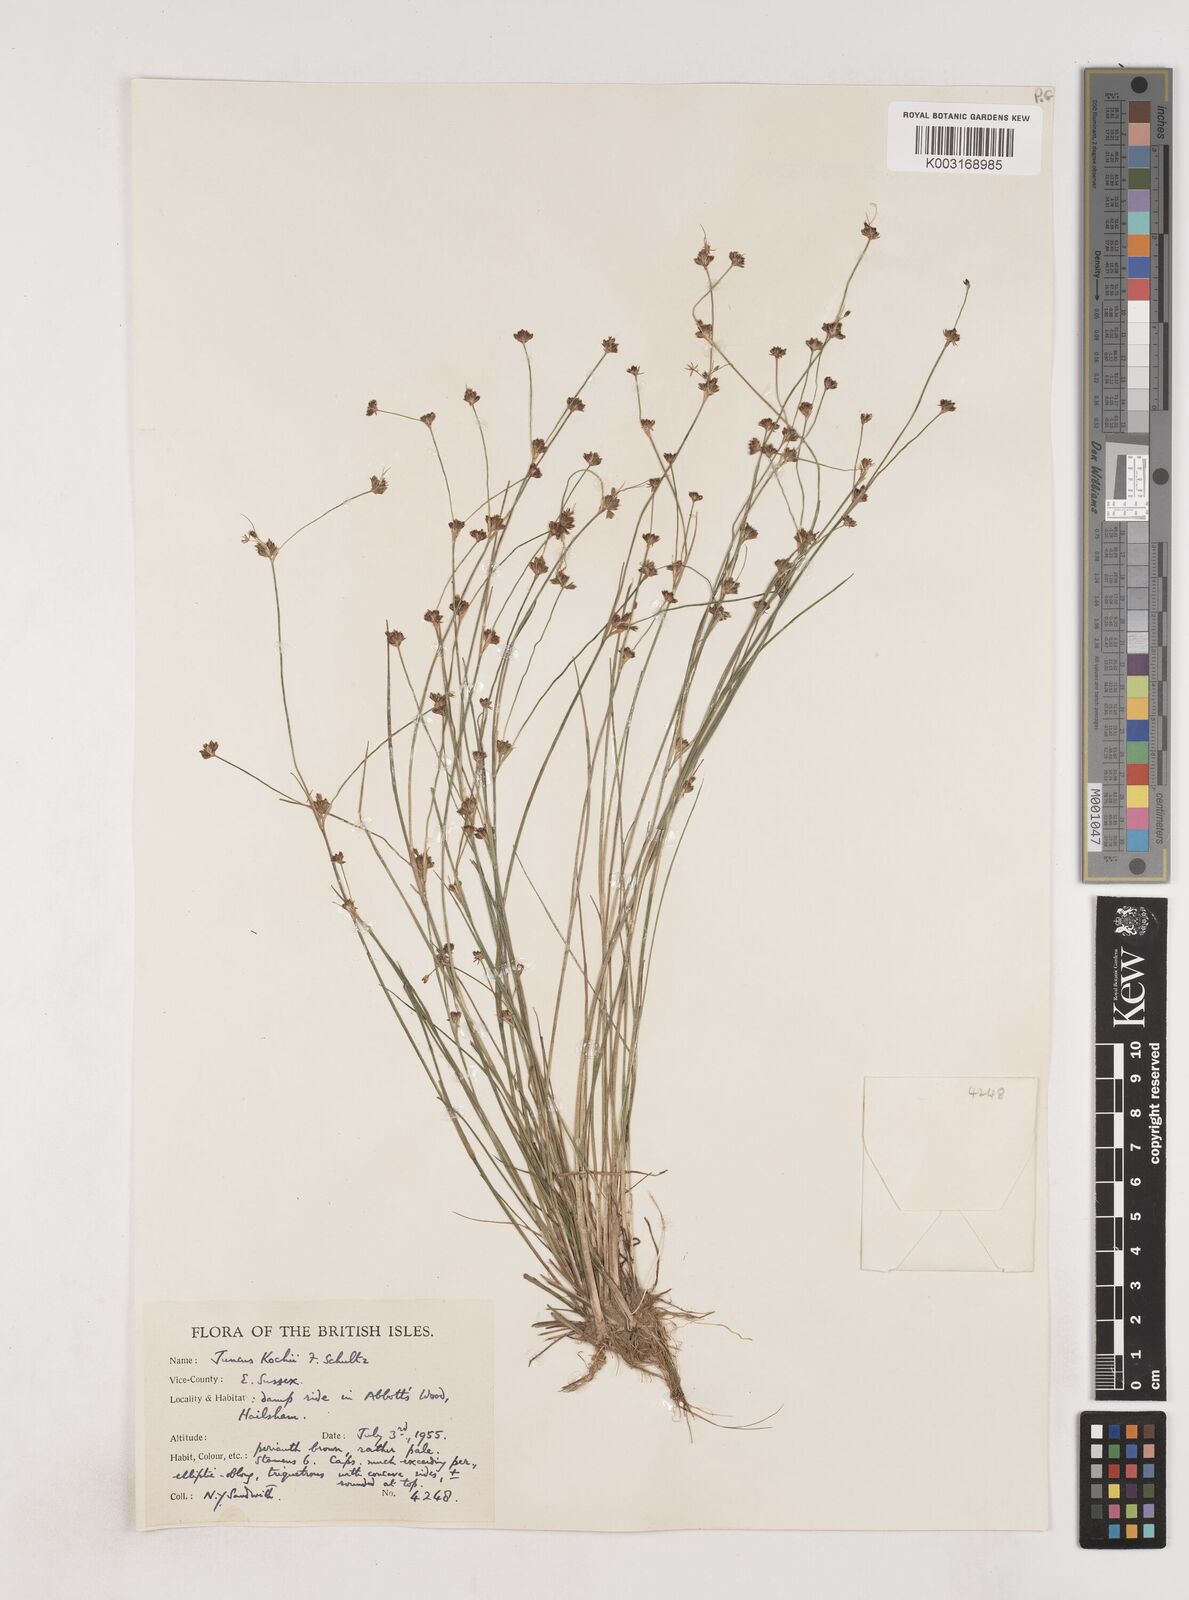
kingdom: Plantae
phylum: Tracheophyta
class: Liliopsida
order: Poales
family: Juncaceae
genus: Juncus
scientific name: Juncus bulbosus
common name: Bulbous rush
